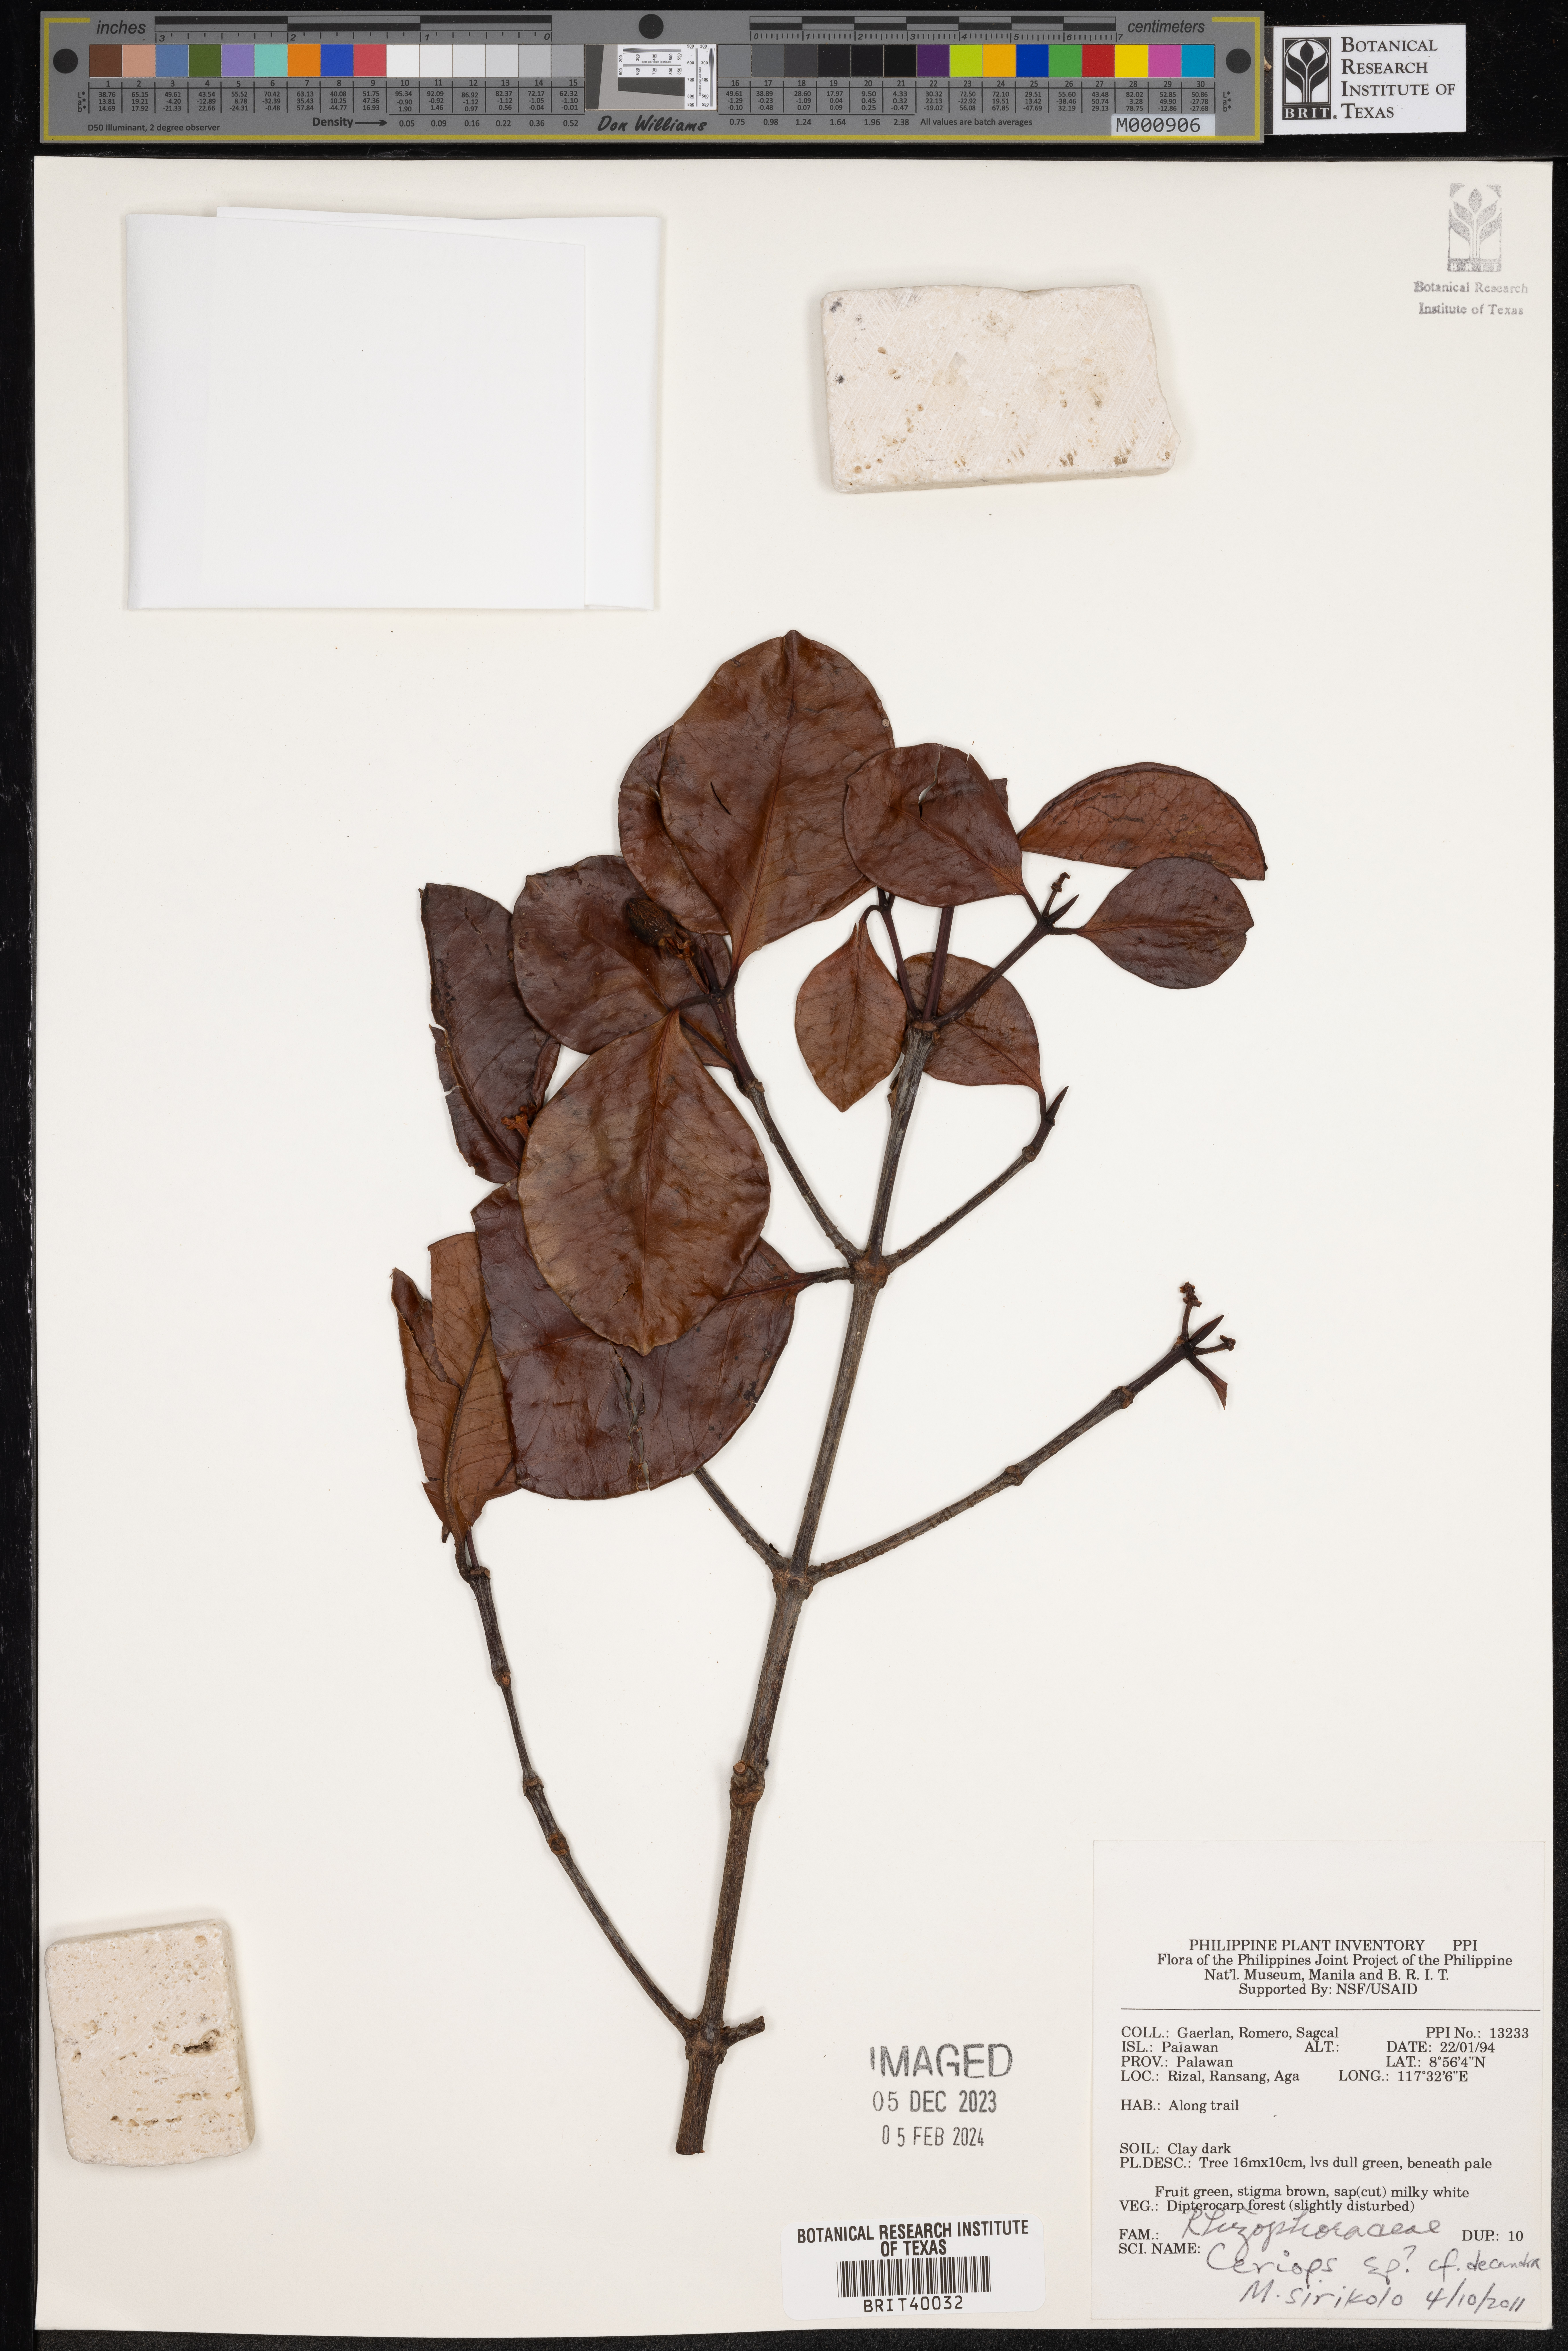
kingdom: Plantae
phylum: Tracheophyta
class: Magnoliopsida
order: Malpighiales
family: Rhizophoraceae
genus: Ceriops
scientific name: Ceriops decandra
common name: Flat-leaf spurred mangrove
